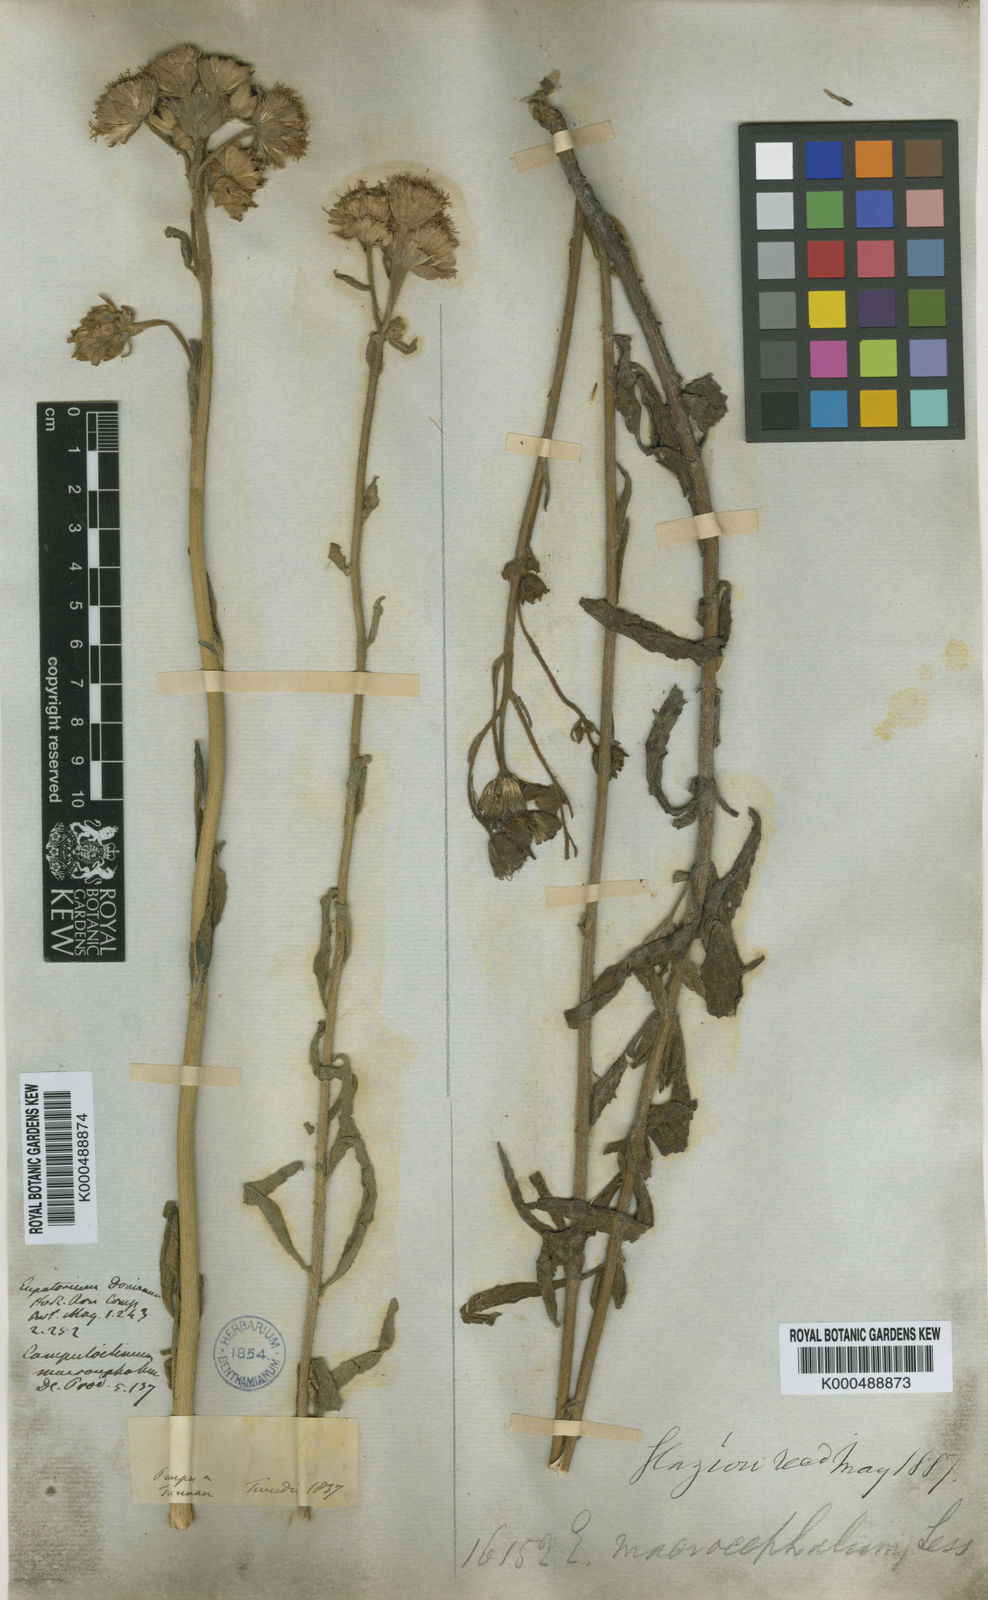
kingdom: Plantae
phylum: Tracheophyta
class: Magnoliopsida
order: Asterales
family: Asteraceae
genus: Campuloclinium
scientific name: Campuloclinium macrocephalum
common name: Pompomweed
